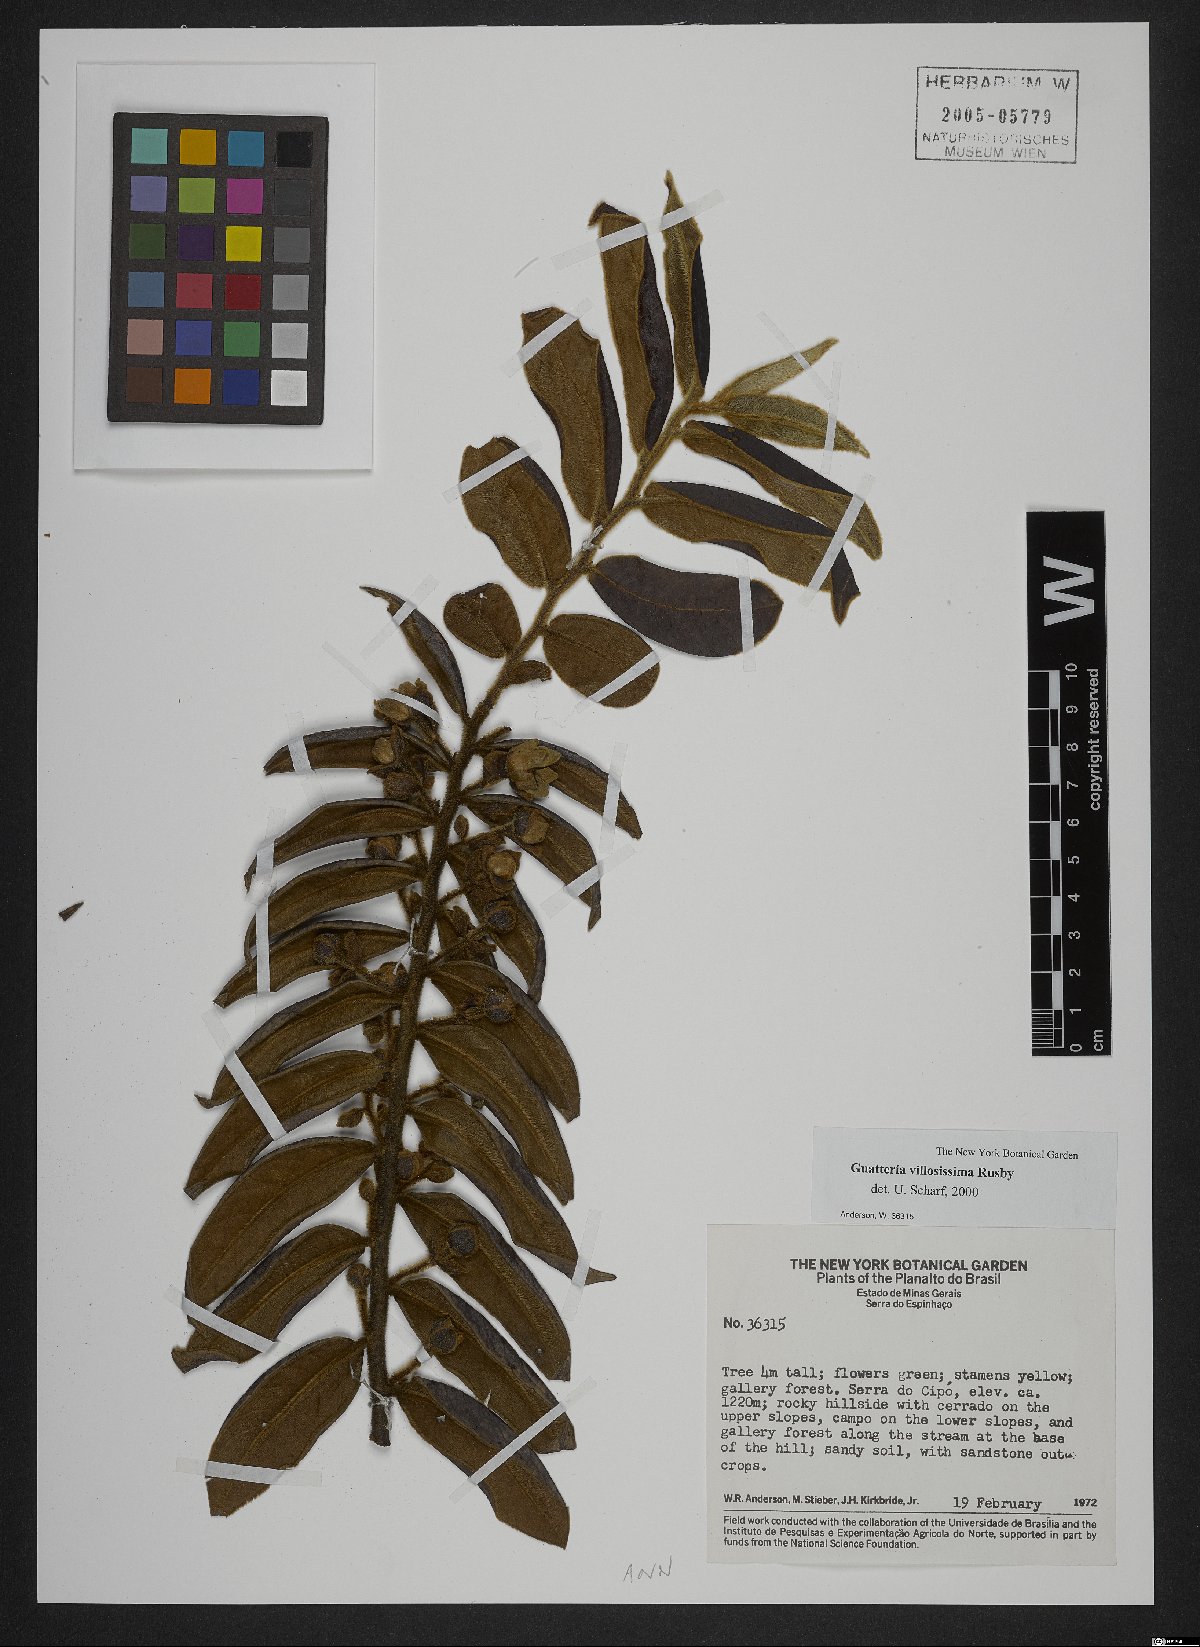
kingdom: Plantae
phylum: Tracheophyta
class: Magnoliopsida
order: Magnoliales
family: Annonaceae
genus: Guatteria
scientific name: Guatteria villosissima
